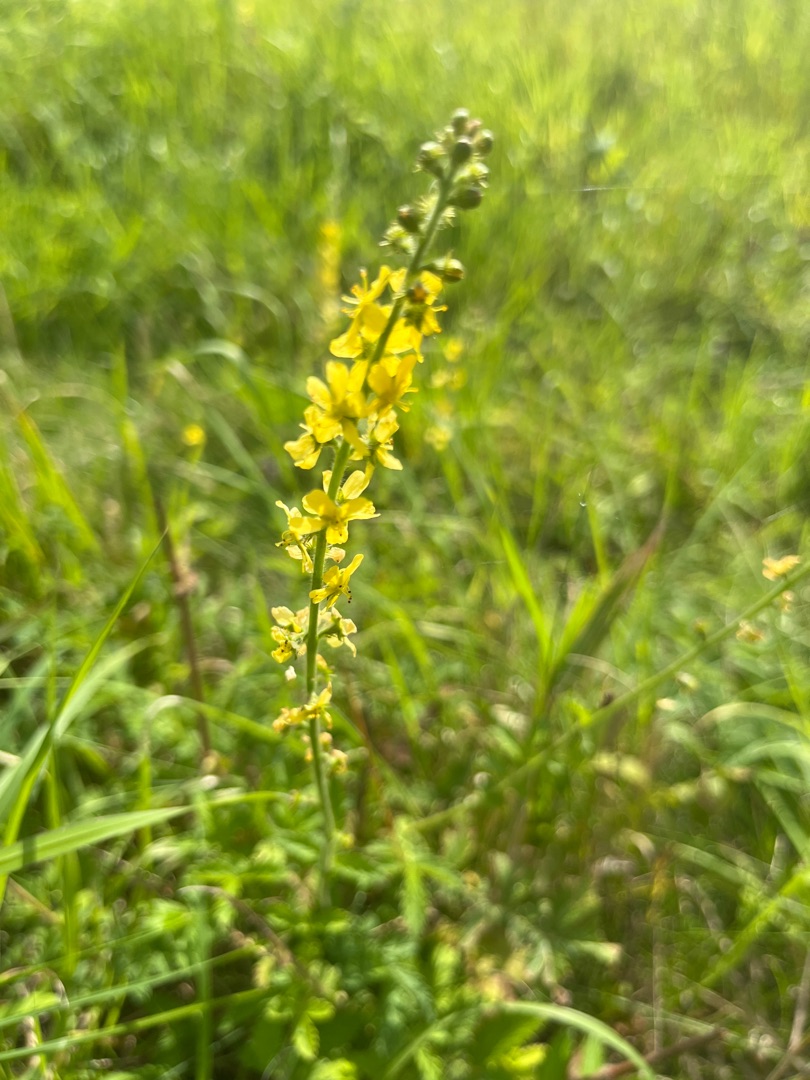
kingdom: Plantae
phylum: Tracheophyta
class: Magnoliopsida
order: Rosales
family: Rosaceae
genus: Agrimonia
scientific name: Agrimonia
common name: Agermåneslægten
